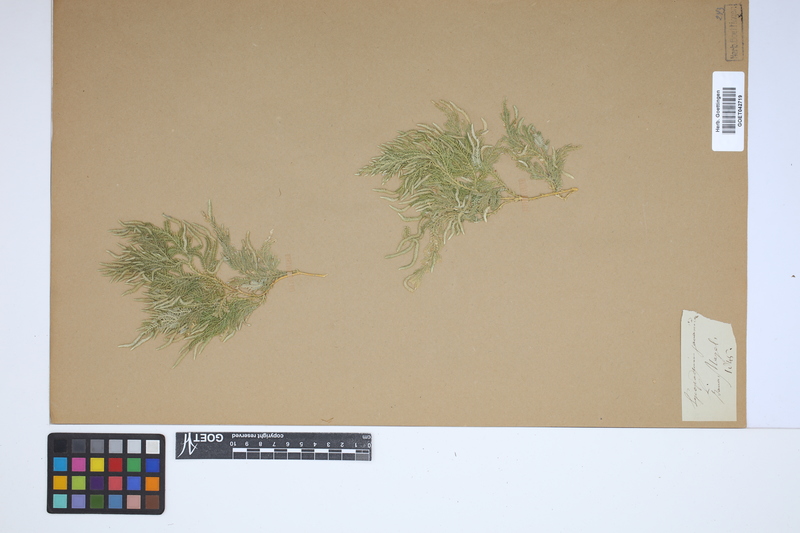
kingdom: Plantae
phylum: Tracheophyta
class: Lycopodiopsida
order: Selaginellales
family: Selaginellaceae
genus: Selaginella
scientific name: Selaginella ornata
